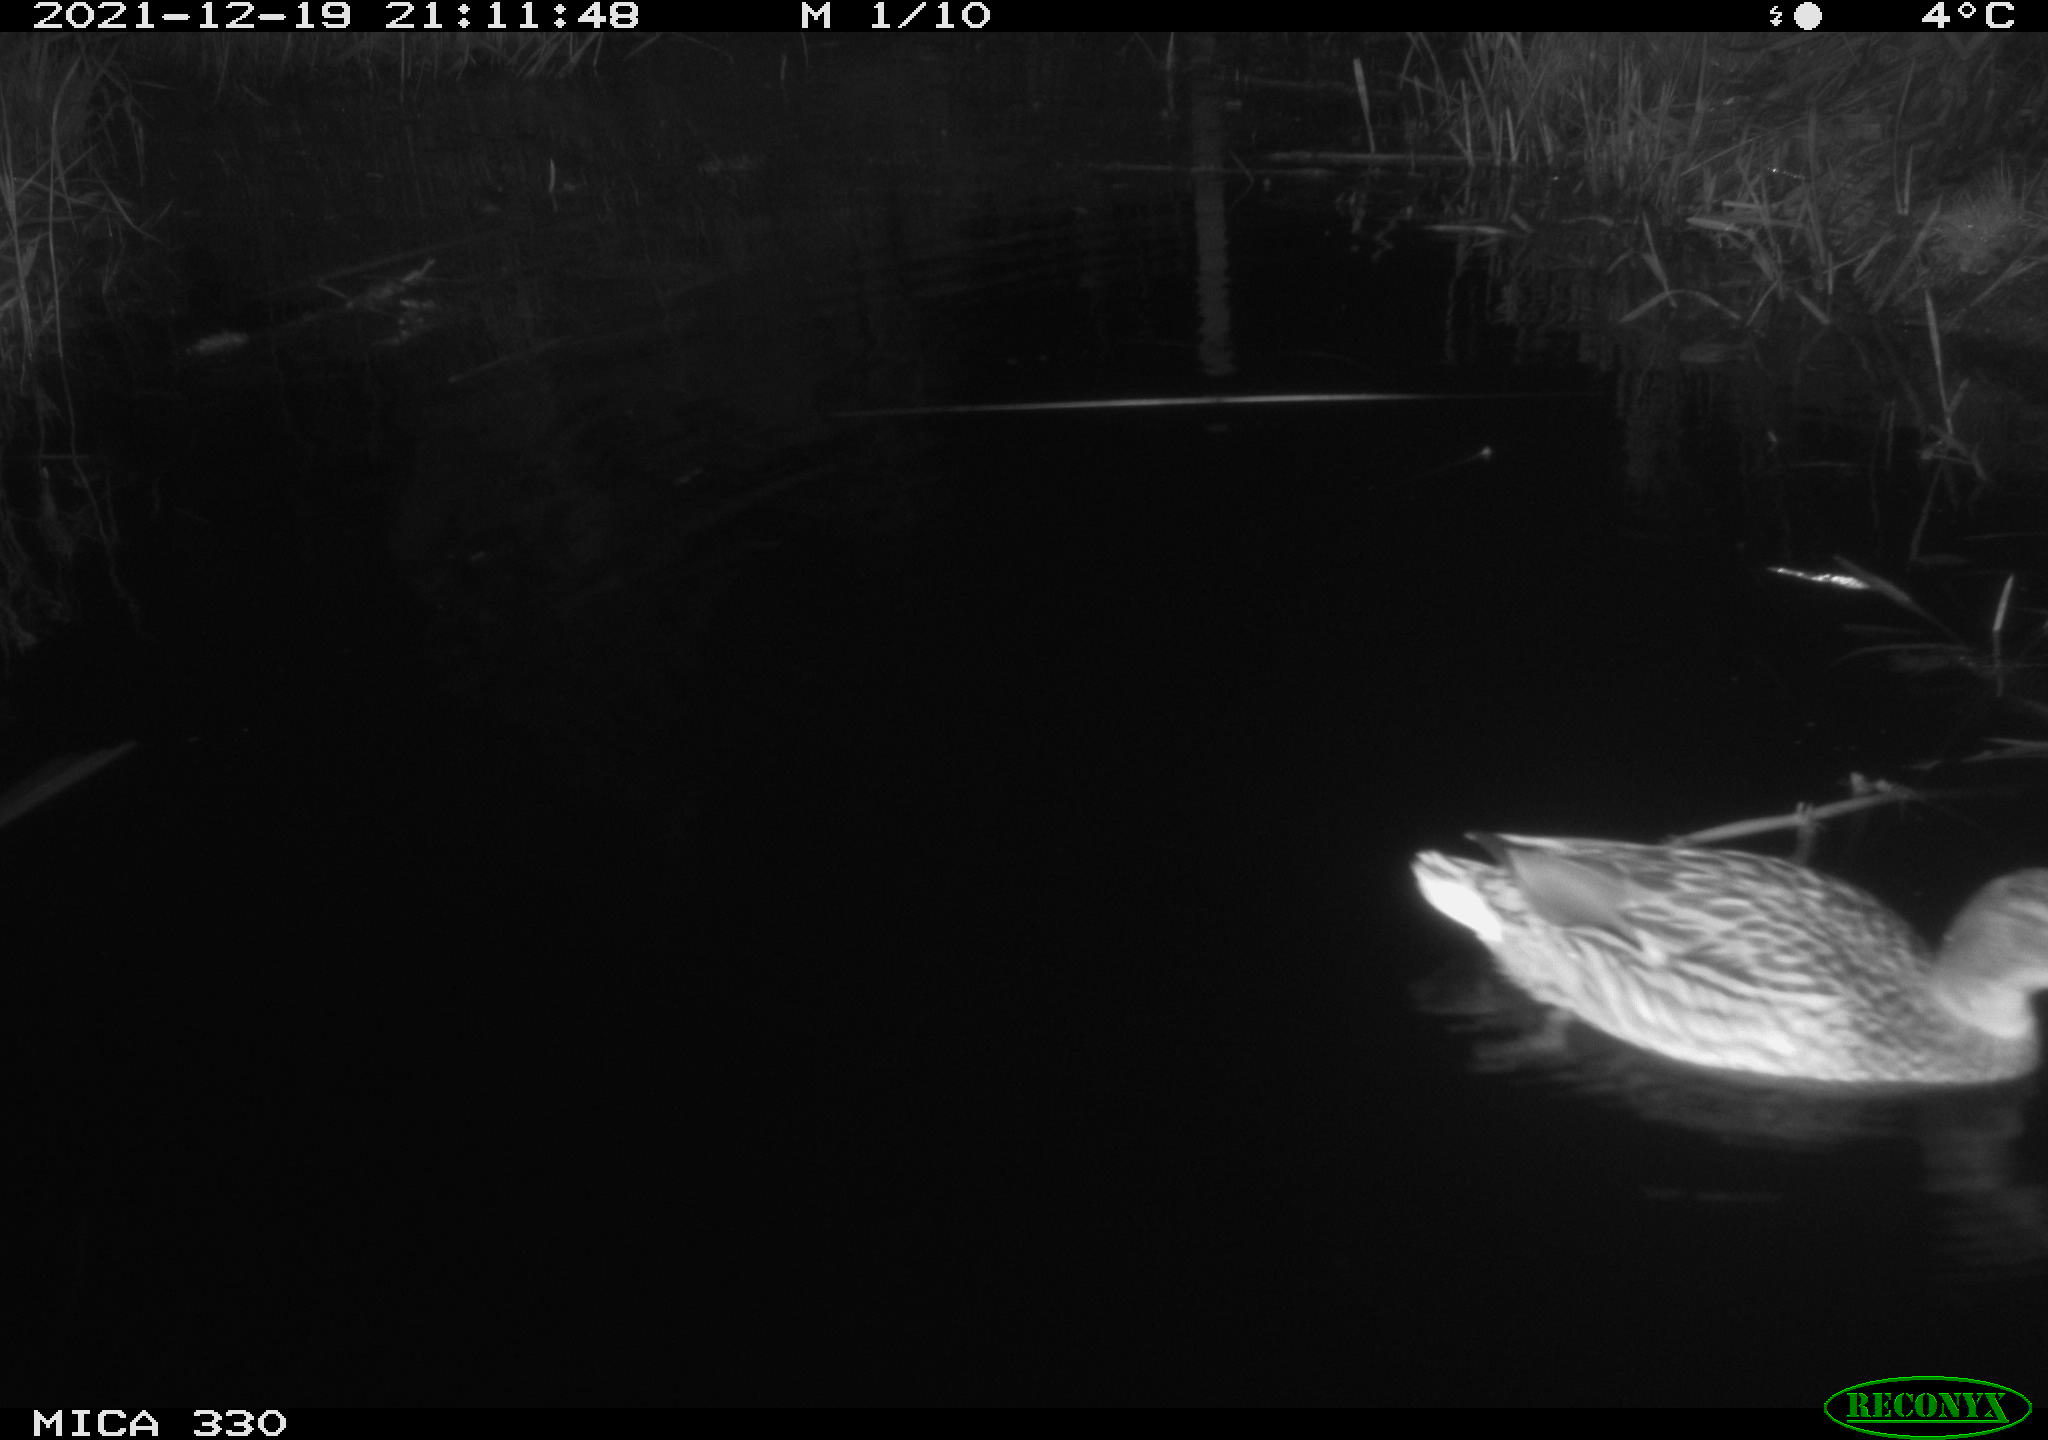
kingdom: Animalia
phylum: Chordata
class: Aves
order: Anseriformes
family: Anatidae
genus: Anas
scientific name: Anas platyrhynchos
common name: Mallard
